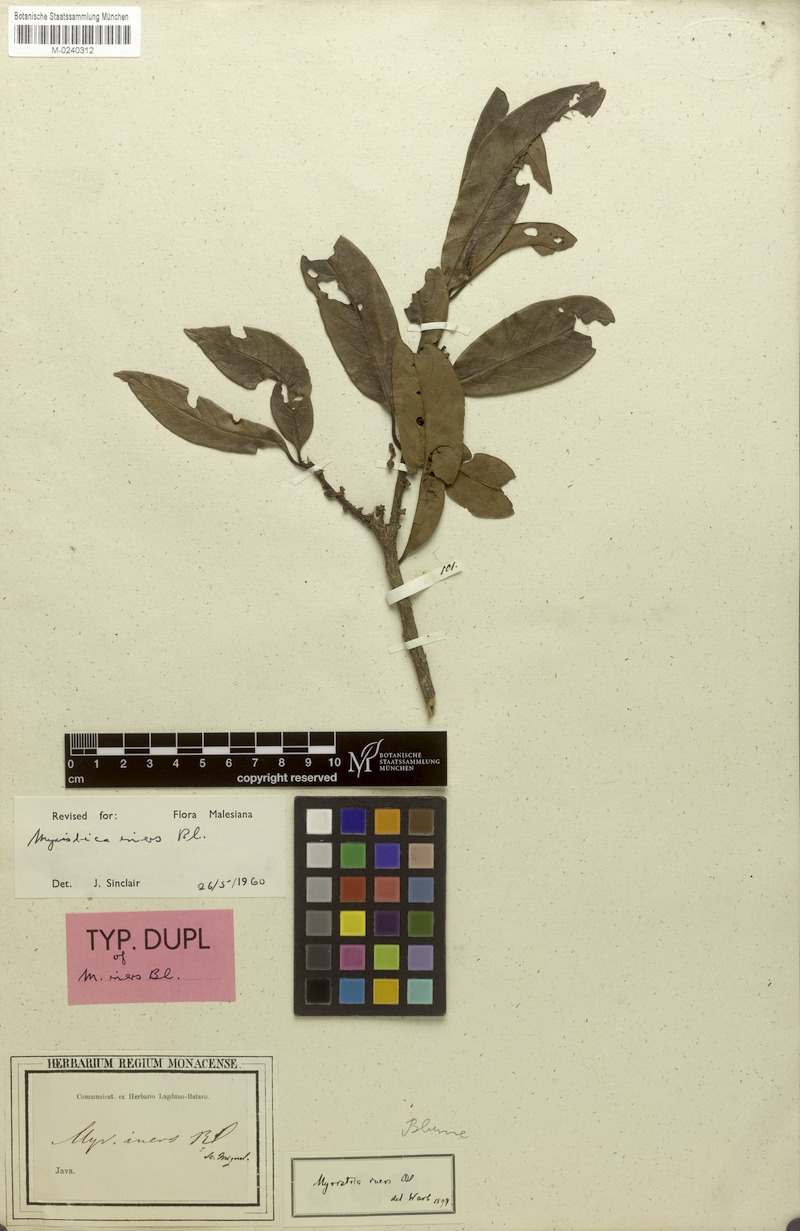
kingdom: Plantae
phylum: Tracheophyta
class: Magnoliopsida
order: Magnoliales
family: Myristicaceae
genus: Myristica
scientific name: Myristica iners
